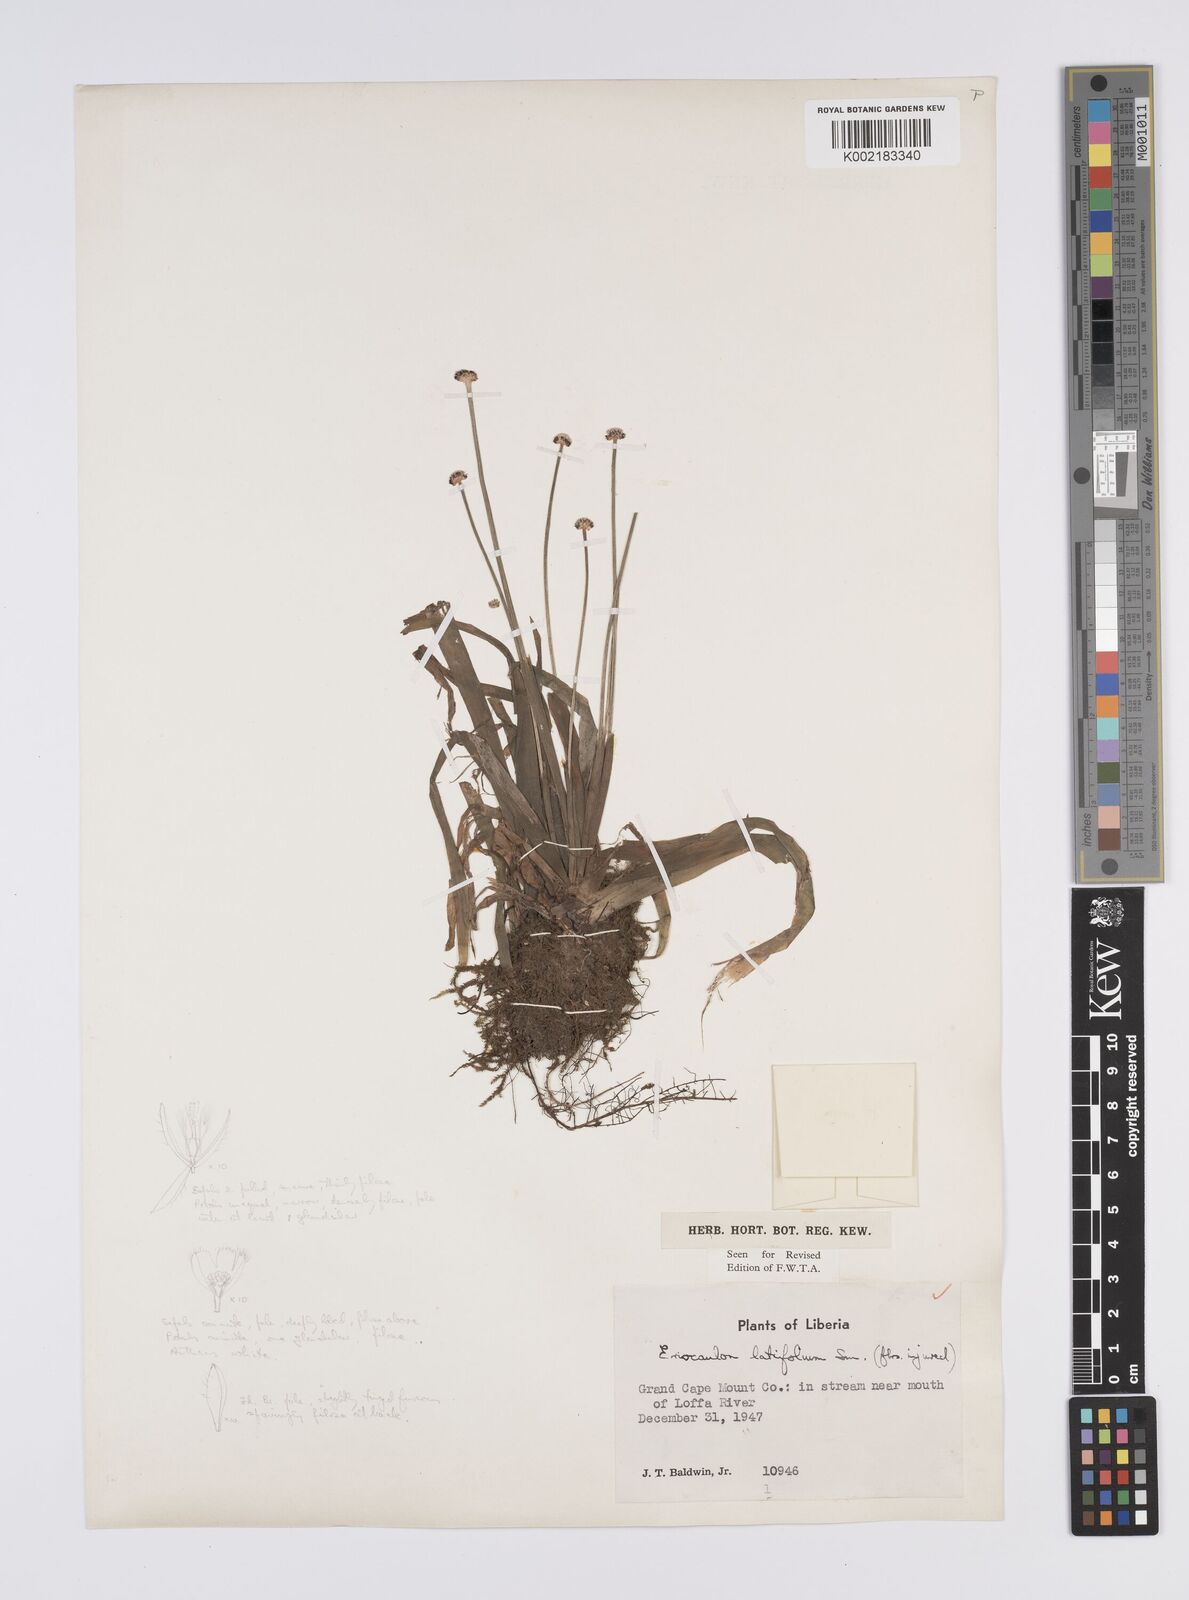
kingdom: Plantae
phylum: Tracheophyta
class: Liliopsida
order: Poales
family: Eriocaulaceae
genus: Eriocaulon
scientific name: Eriocaulon latifolium
